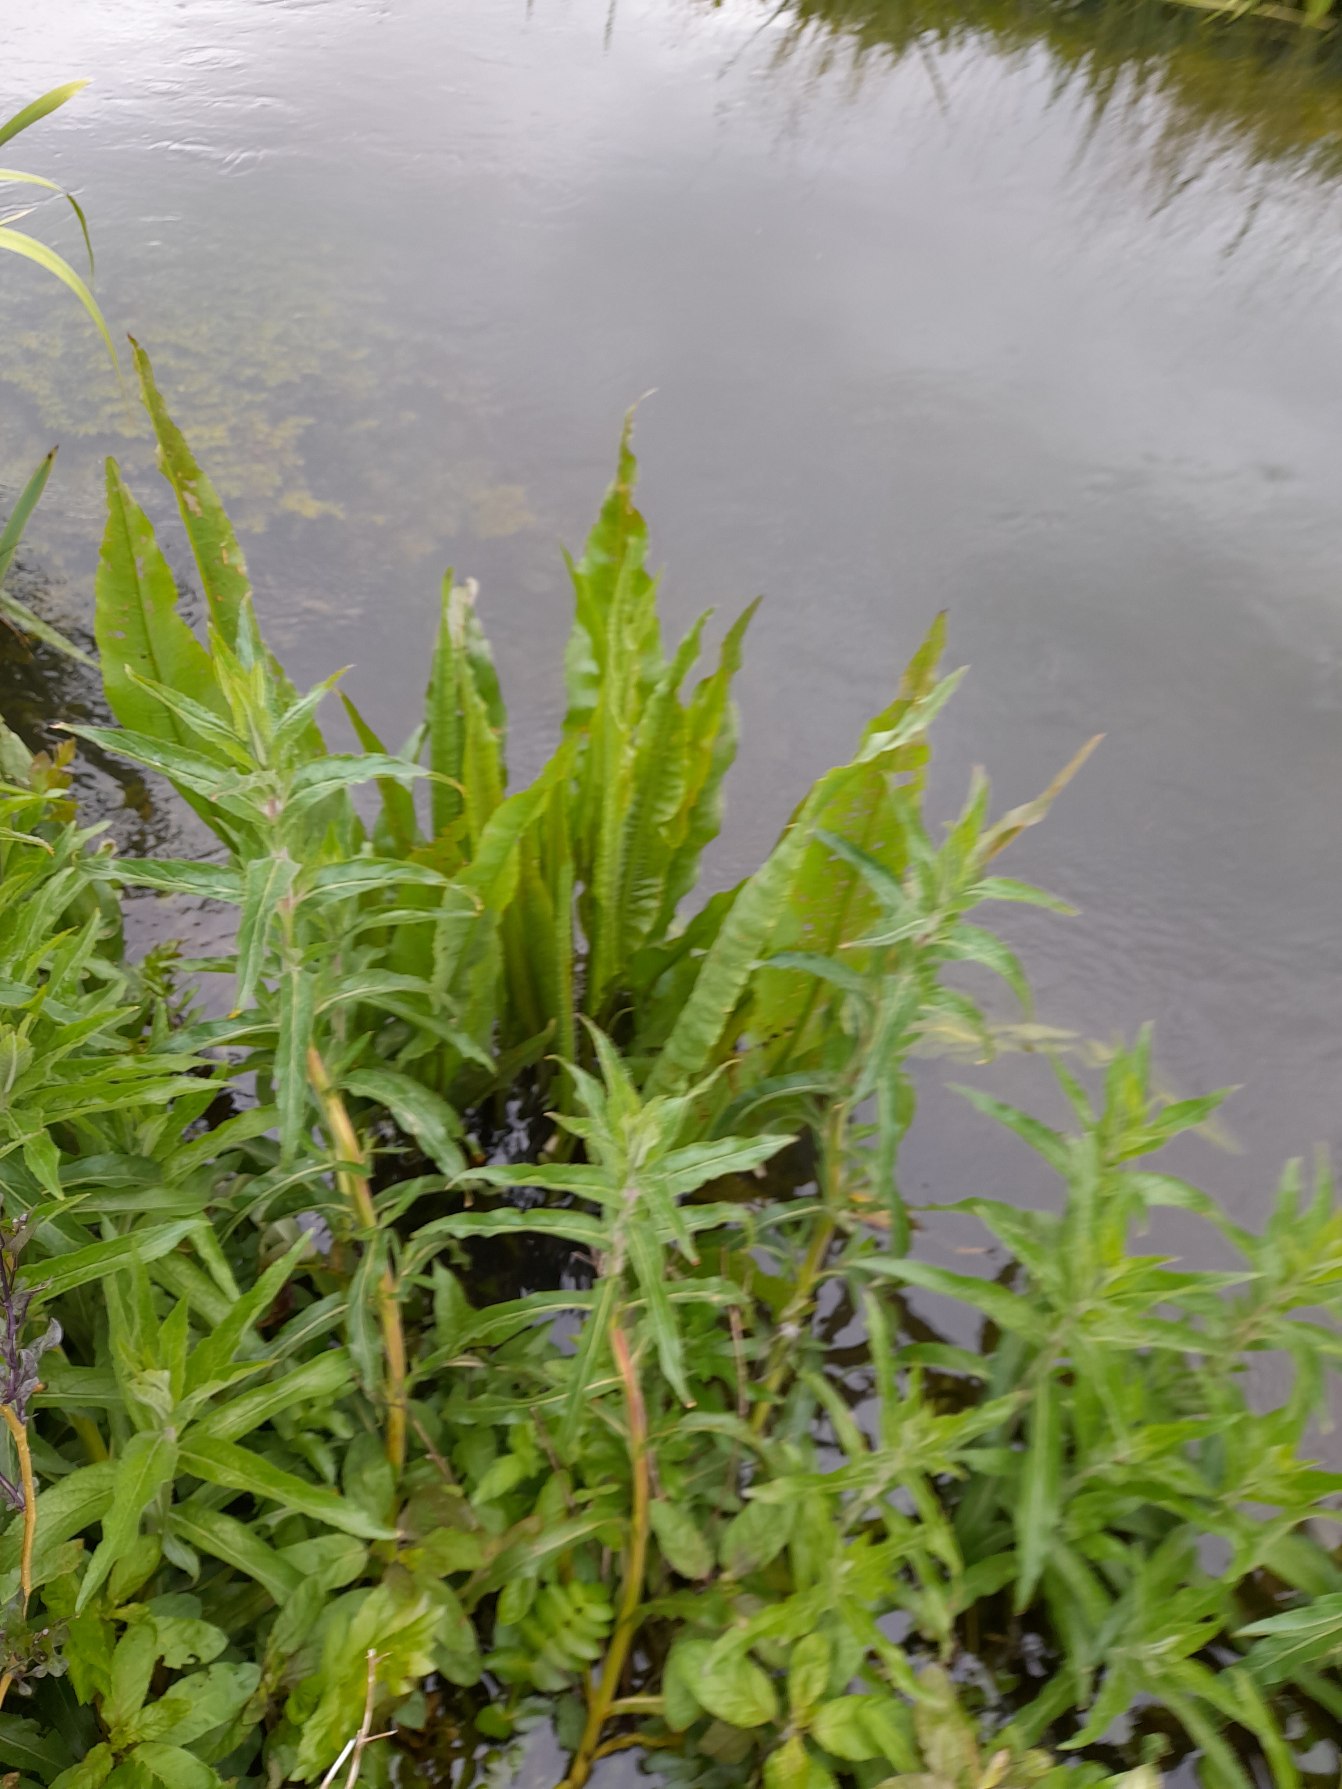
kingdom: Plantae
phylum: Tracheophyta
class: Magnoliopsida
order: Caryophyllales
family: Polygonaceae
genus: Rumex
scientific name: Rumex hydrolapathum
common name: Vand-skræppe
